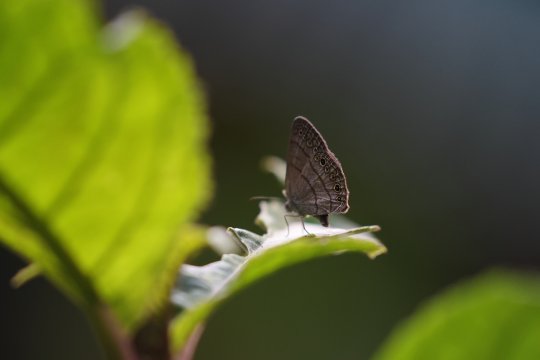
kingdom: Animalia
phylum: Arthropoda
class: Insecta
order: Lepidoptera
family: Nymphalidae
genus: Hermeuptychia
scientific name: Hermeuptychia hermes
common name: Carolina Satyr
